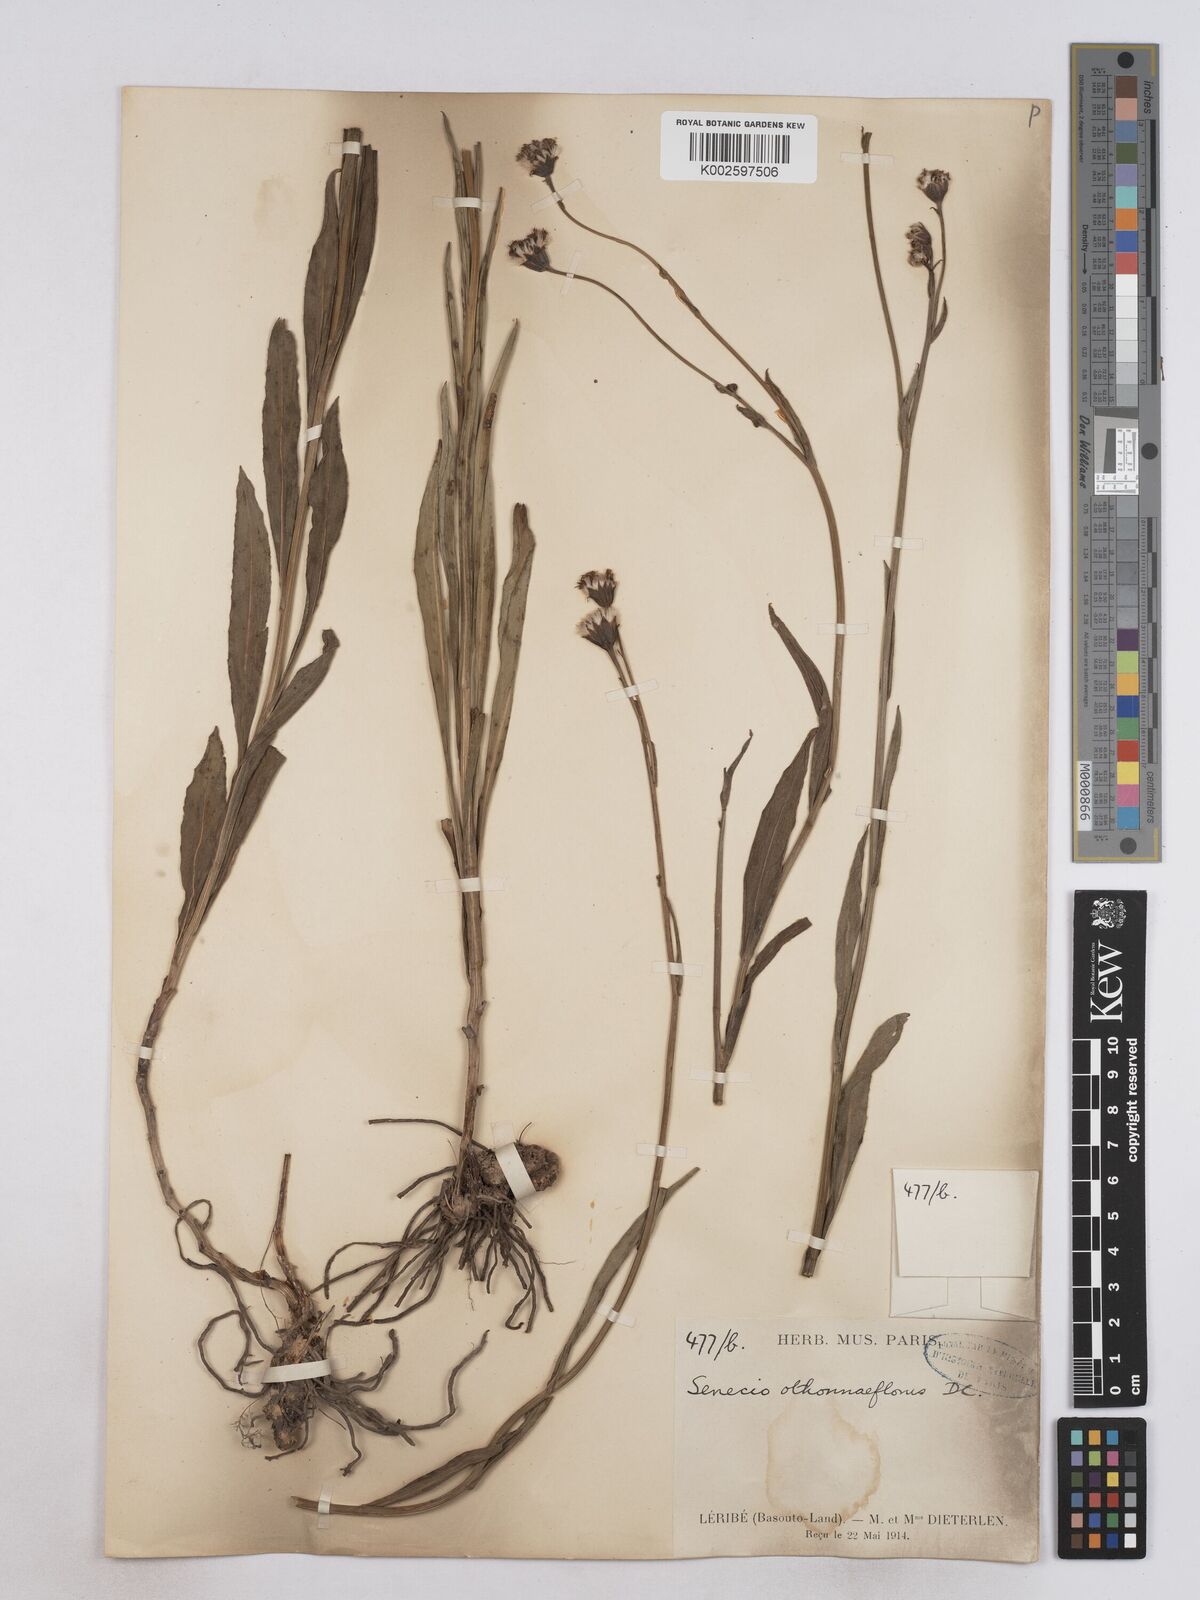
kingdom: Plantae
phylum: Tracheophyta
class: Magnoliopsida
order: Asterales
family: Asteraceae
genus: Senecio
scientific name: Senecio othonniflorus
